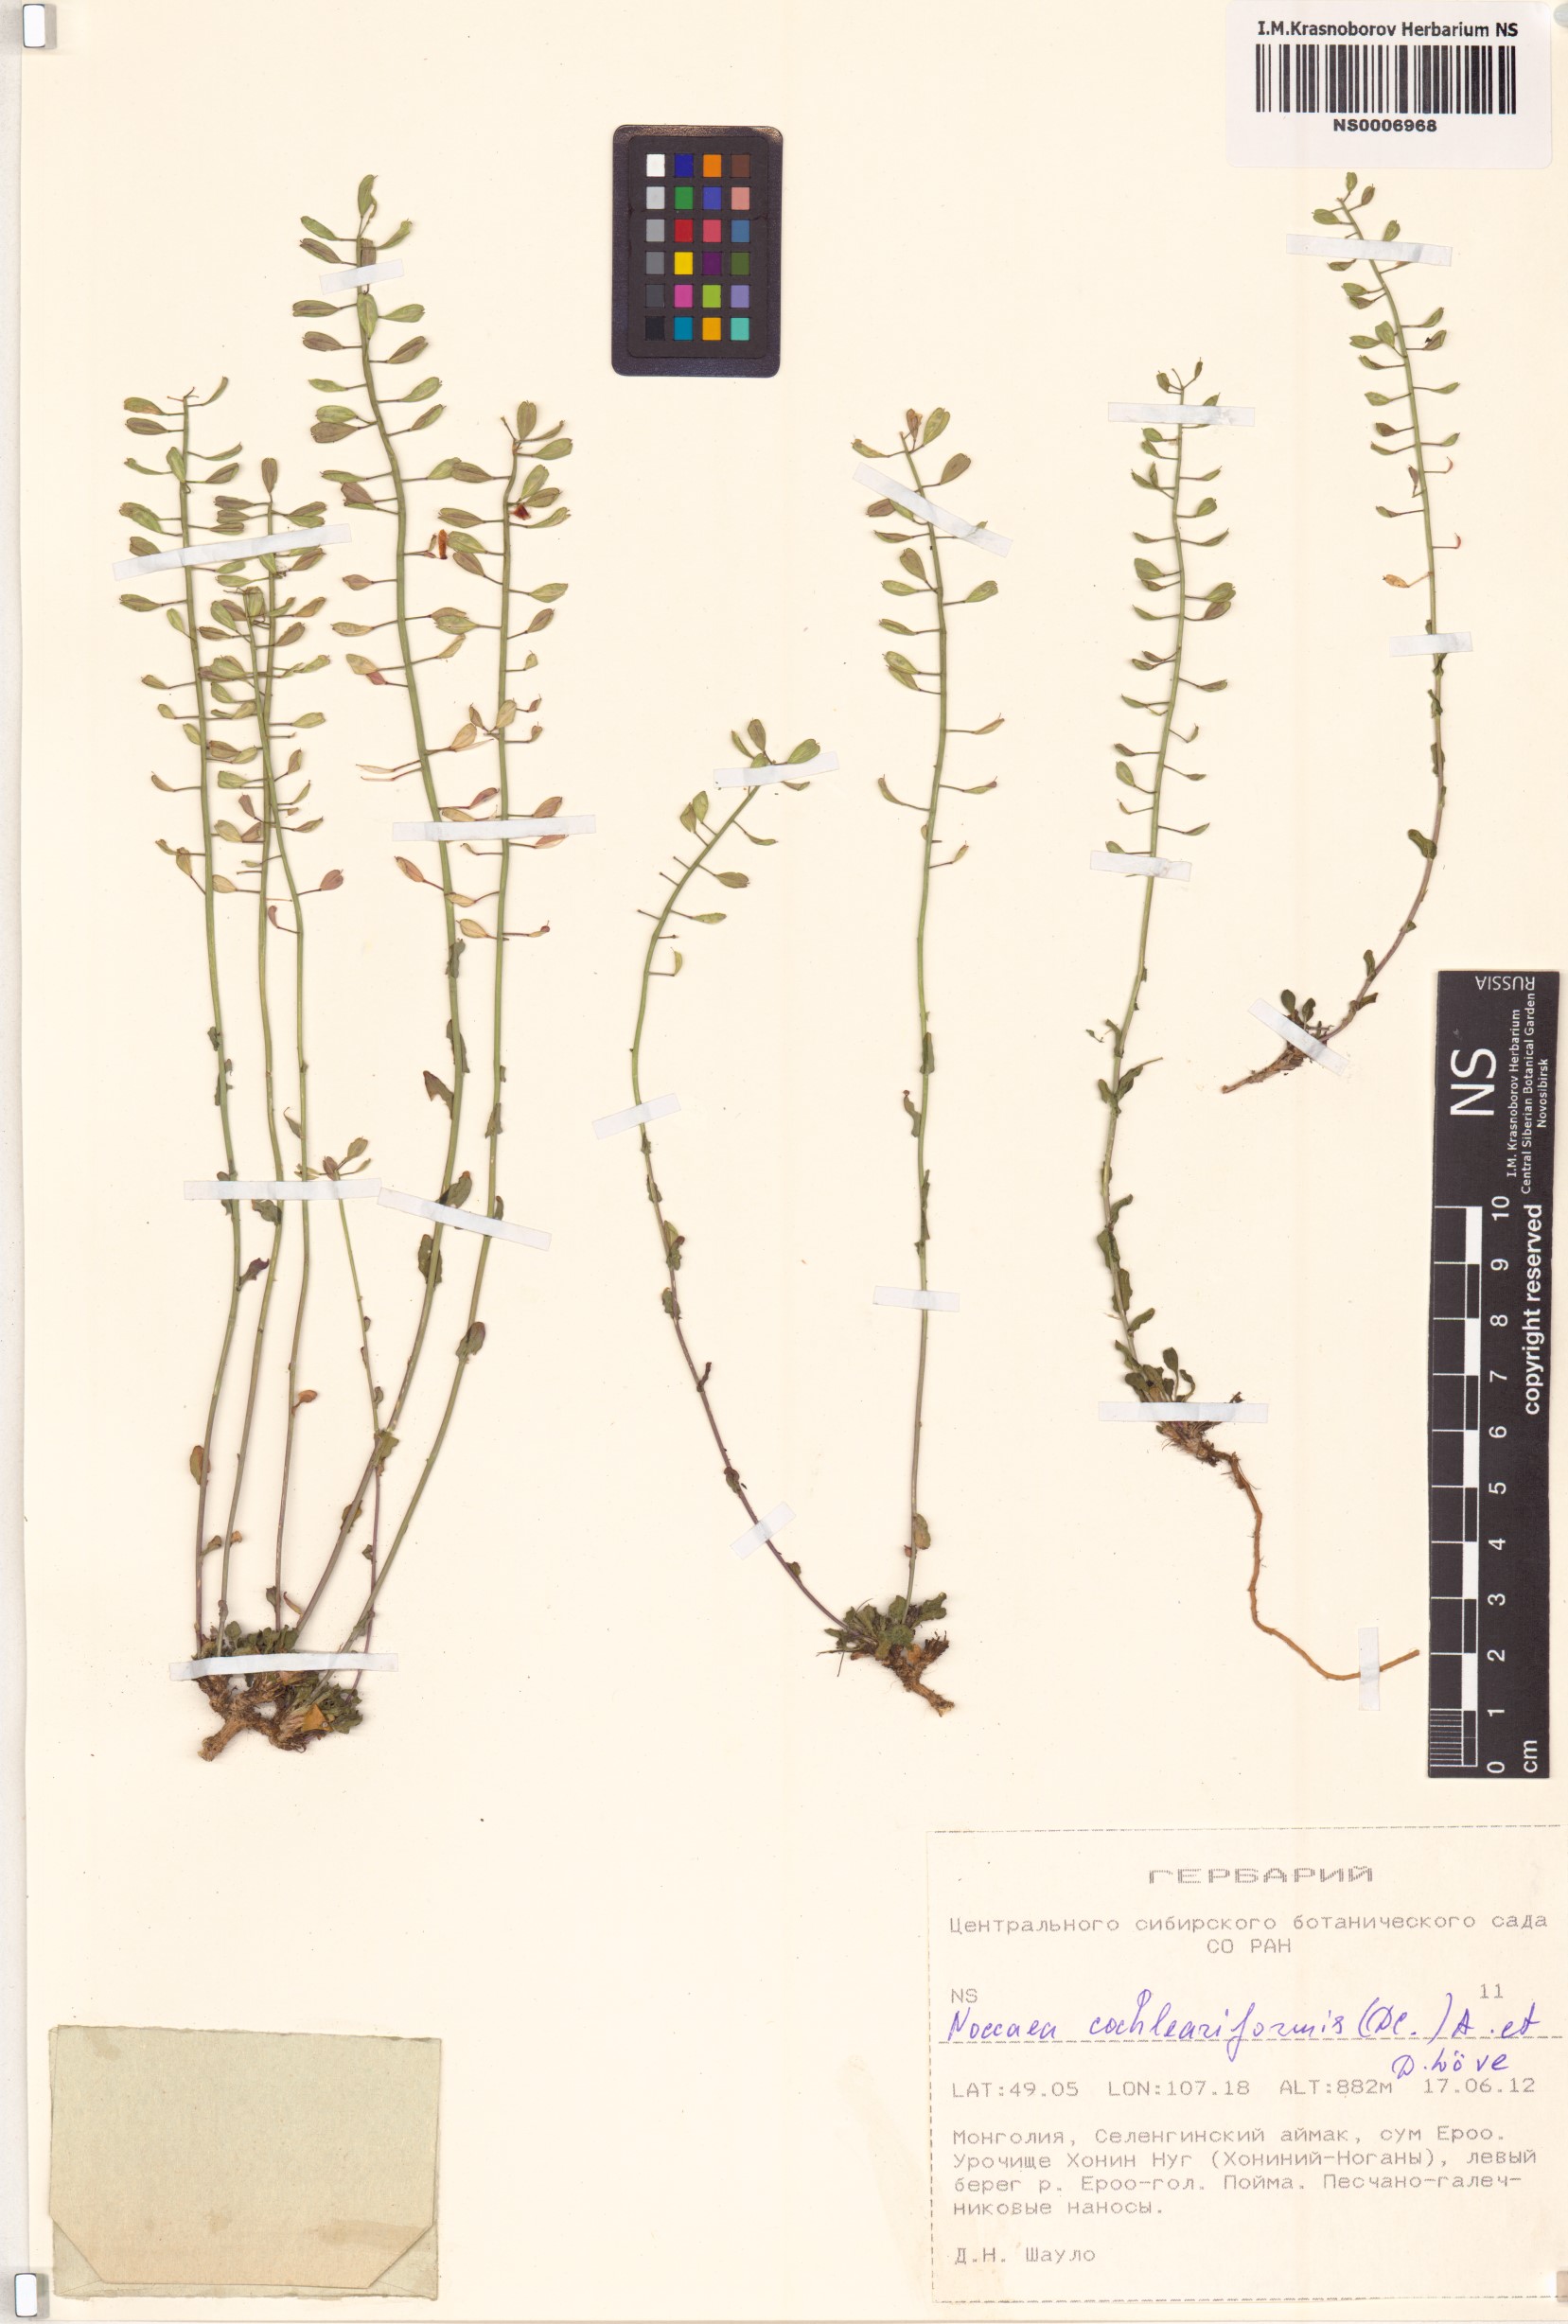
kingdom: Plantae
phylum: Tracheophyta
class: Magnoliopsida
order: Brassicales
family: Brassicaceae
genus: Noccaea
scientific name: Noccaea thlaspidioides
